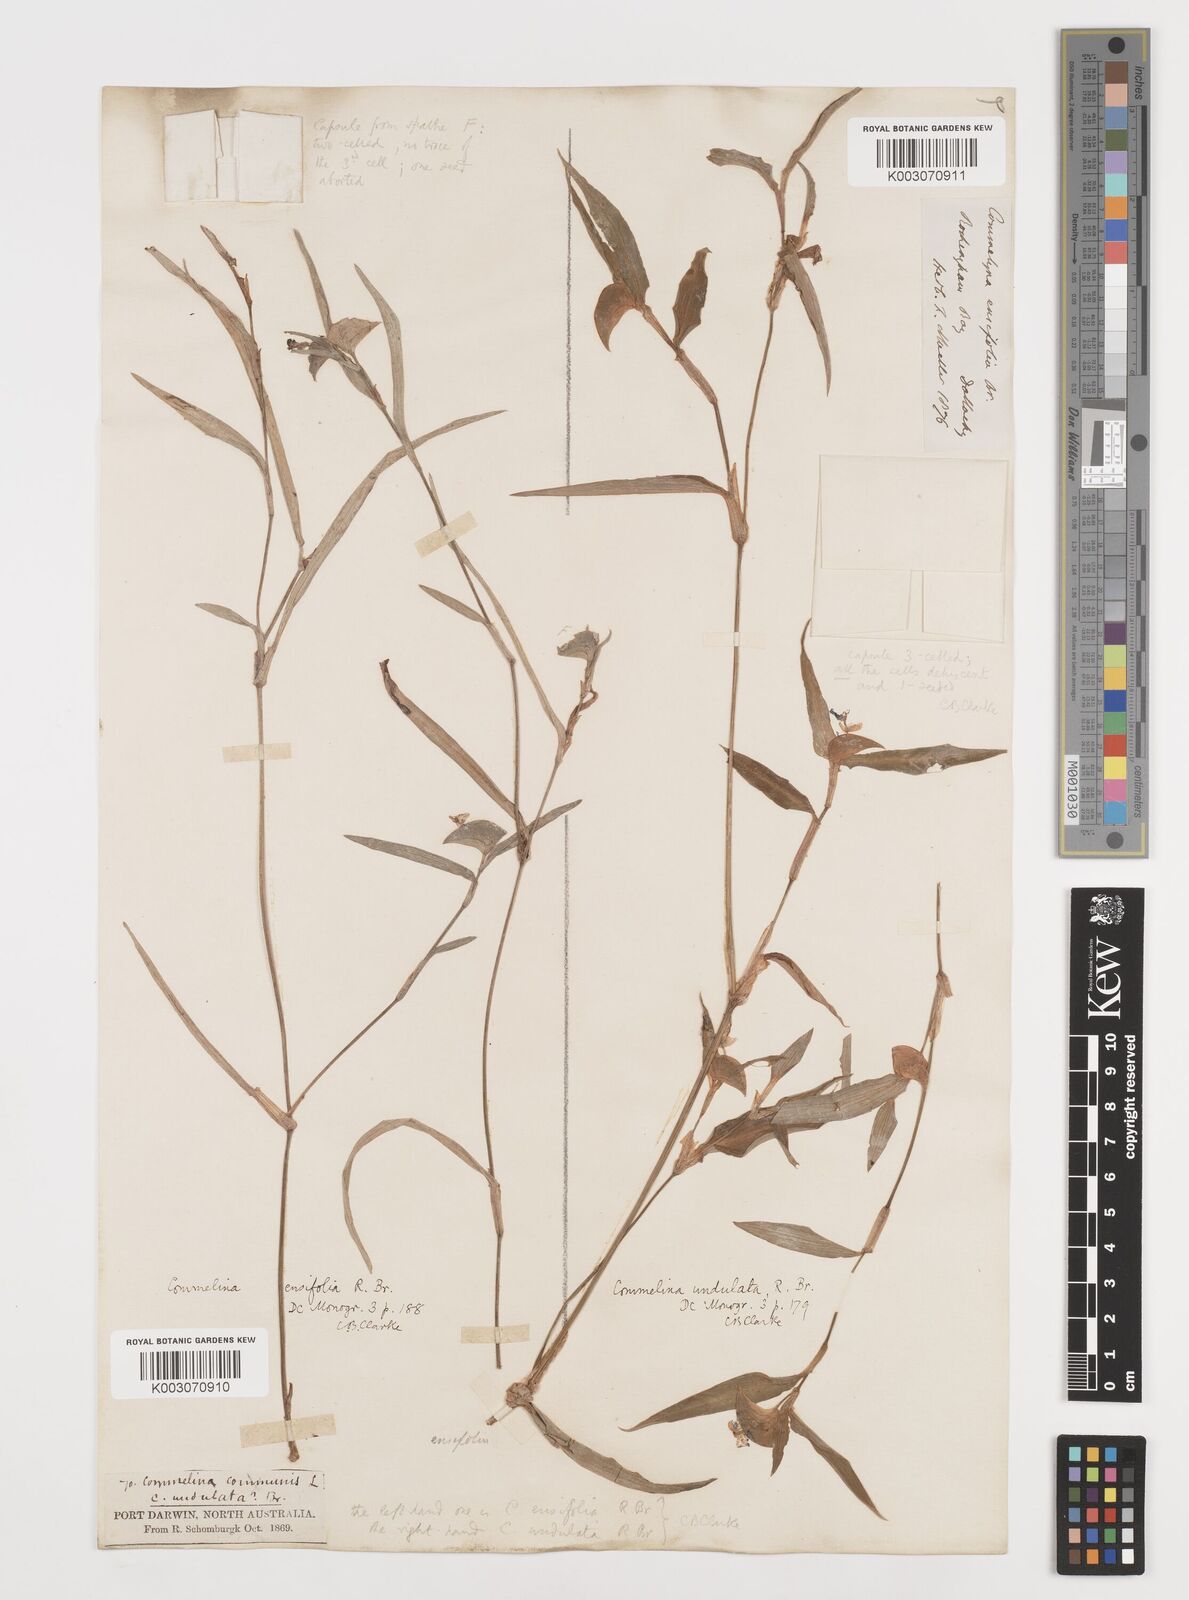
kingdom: Plantae
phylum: Tracheophyta
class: Liliopsida
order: Commelinales
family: Commelinaceae
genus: Commelina
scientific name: Commelina ensifolia
